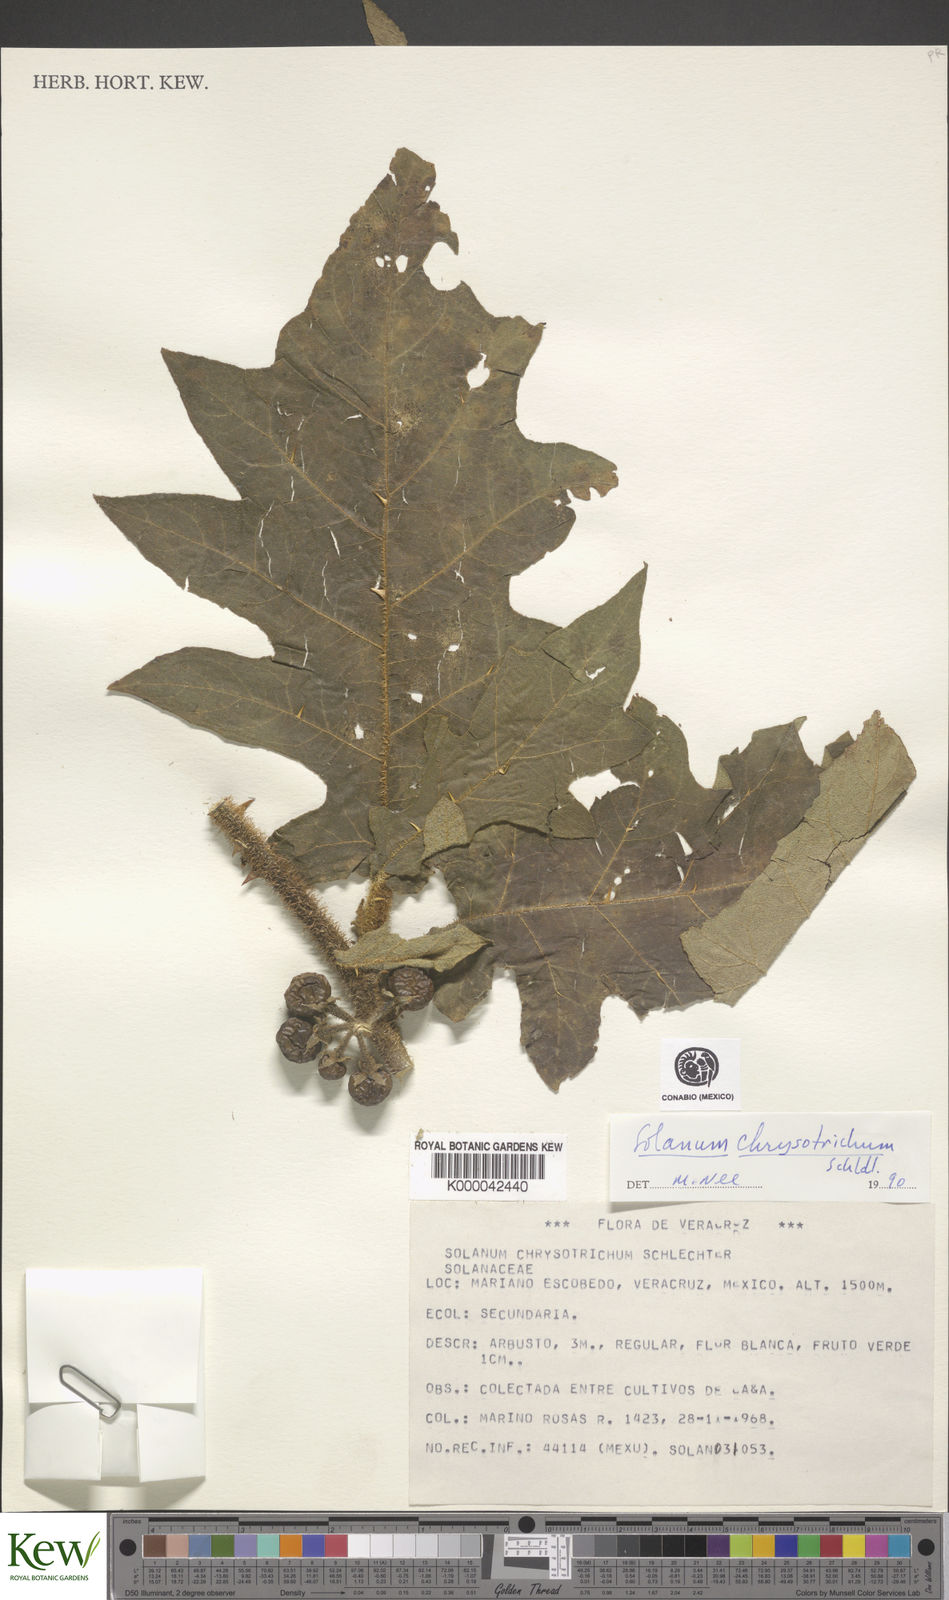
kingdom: Plantae
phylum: Tracheophyta
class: Magnoliopsida
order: Solanales
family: Solanaceae
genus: Solanum
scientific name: Solanum
